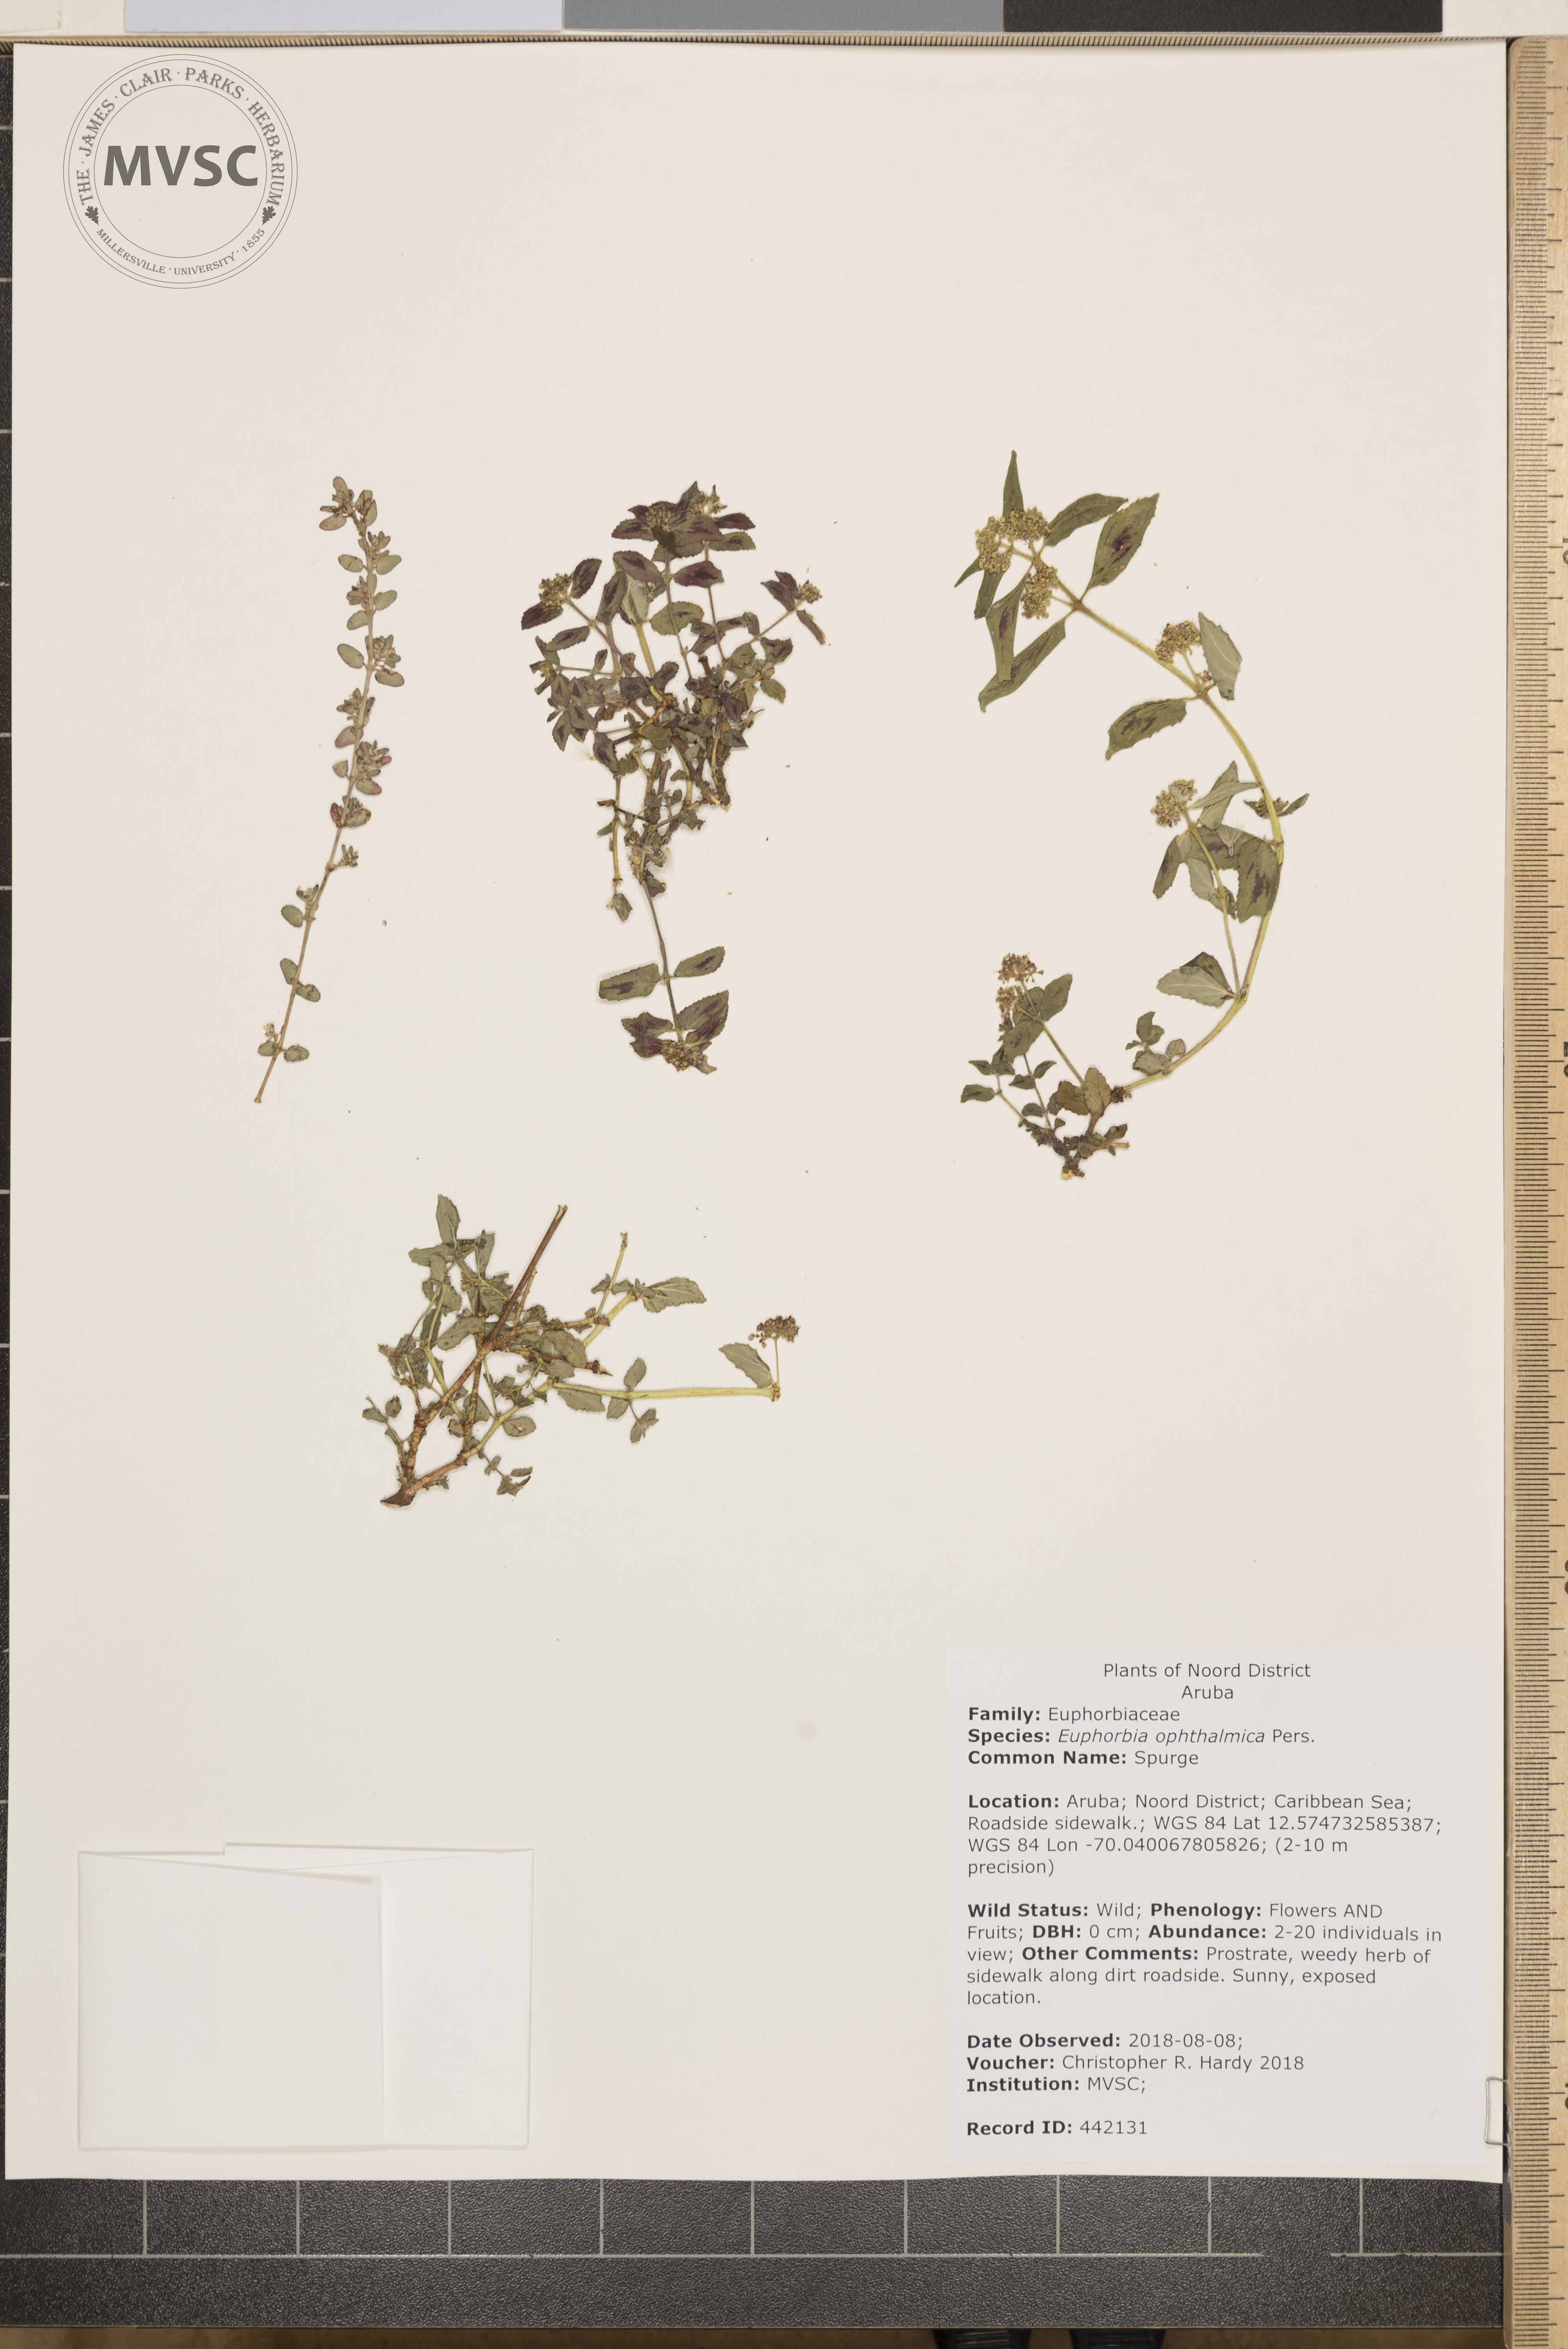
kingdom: Plantae
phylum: Tracheophyta
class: Magnoliopsida
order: Malpighiales
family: Euphorbiaceae
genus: Euphorbia
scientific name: Euphorbia ophthalmica
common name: Spurge
